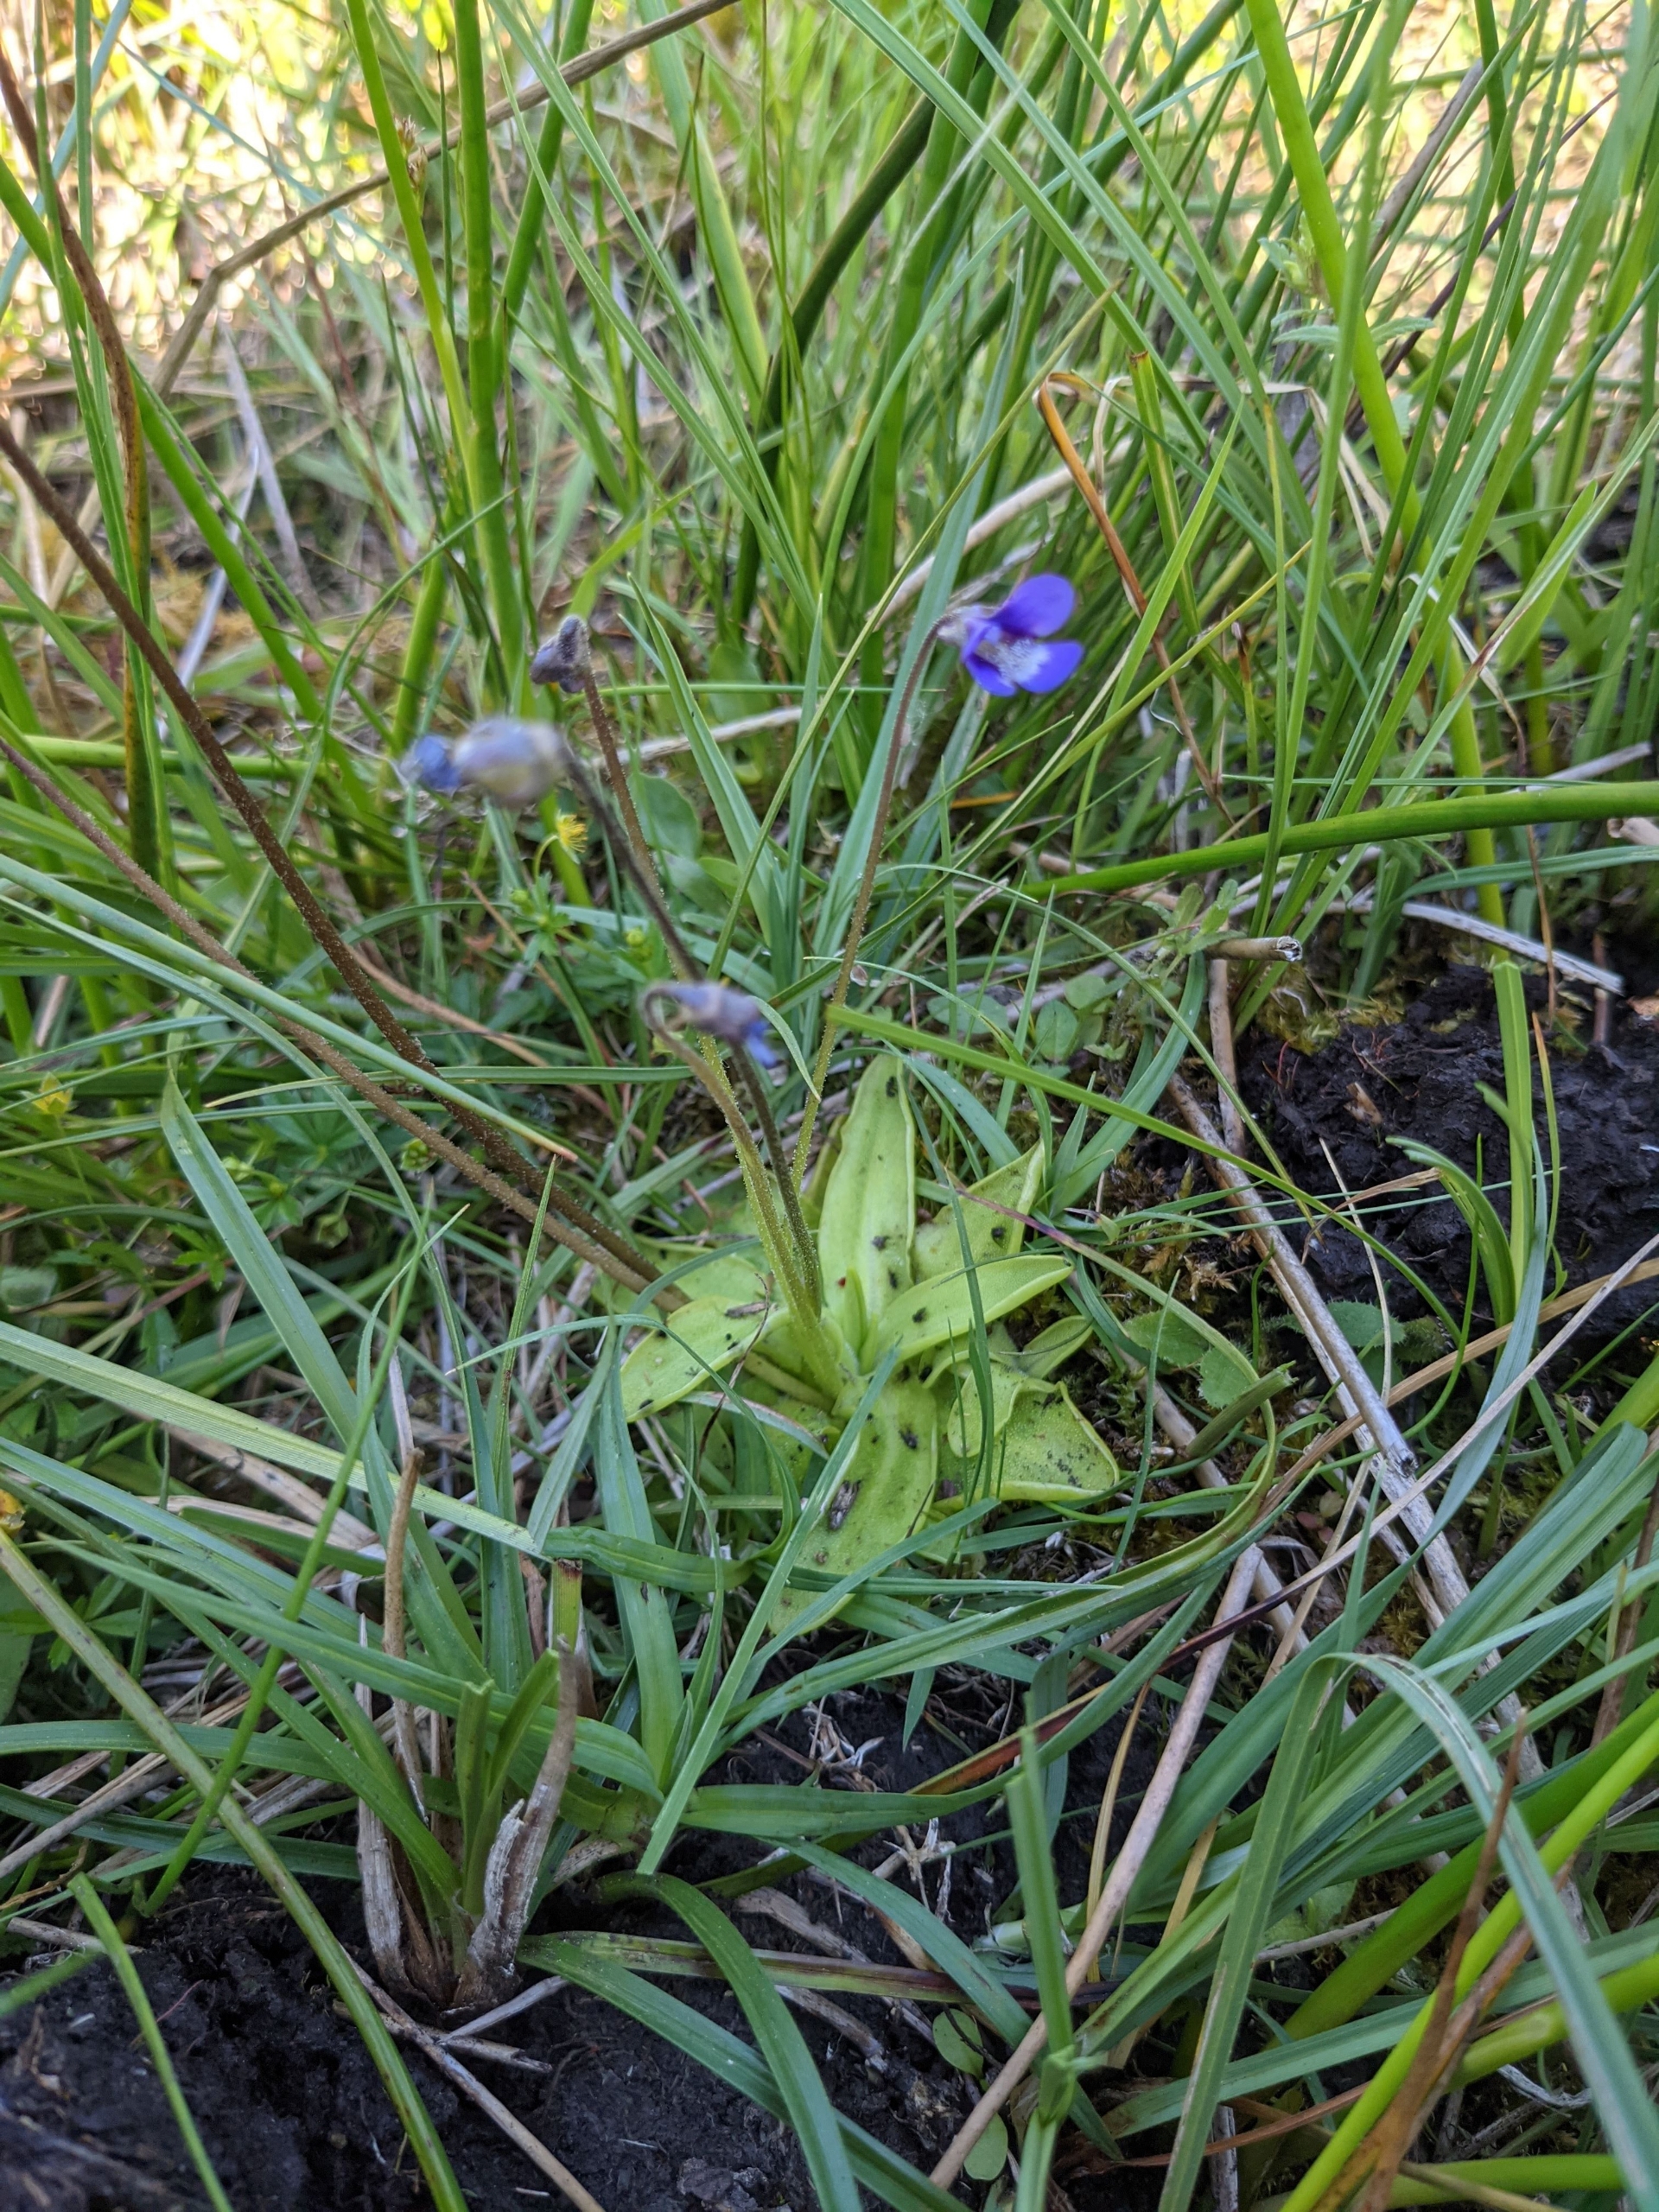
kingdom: Plantae
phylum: Tracheophyta
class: Magnoliopsida
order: Lamiales
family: Lentibulariaceae
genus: Pinguicula
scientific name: Pinguicula vulgaris
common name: Vibefedt
